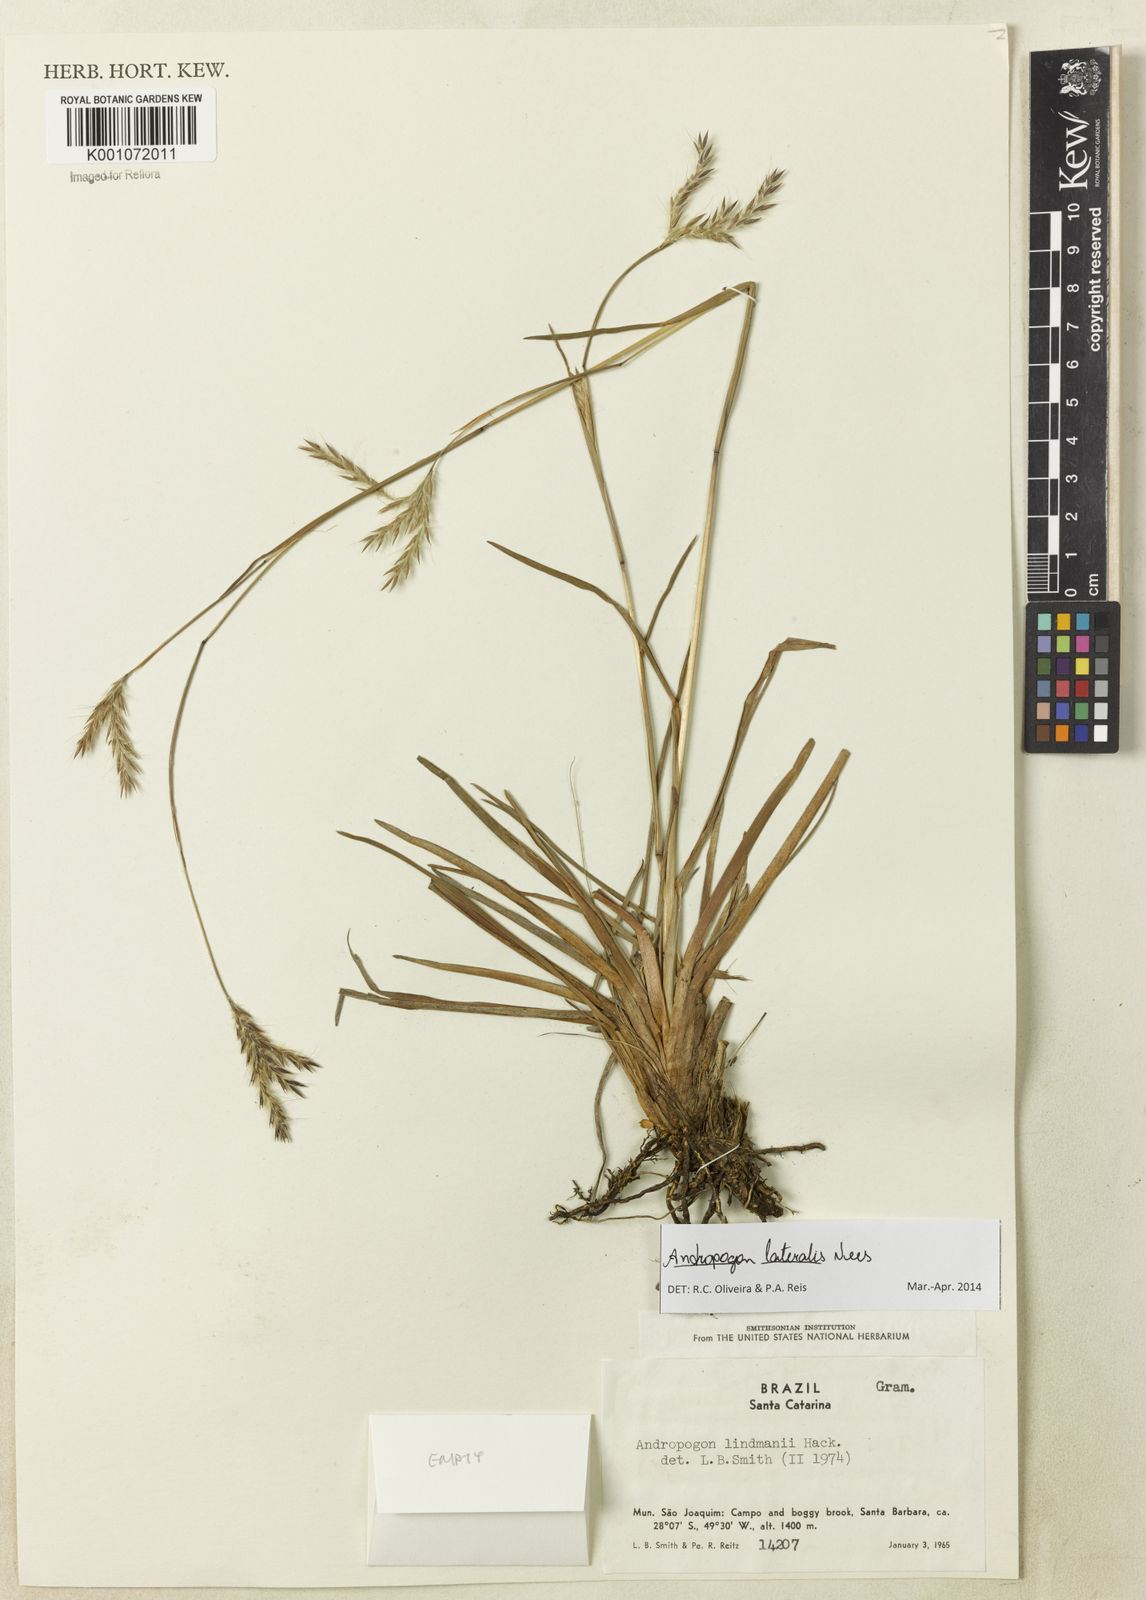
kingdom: Plantae
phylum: Tracheophyta
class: Liliopsida
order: Poales
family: Poaceae
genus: Andropogon
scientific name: Andropogon lateralis
